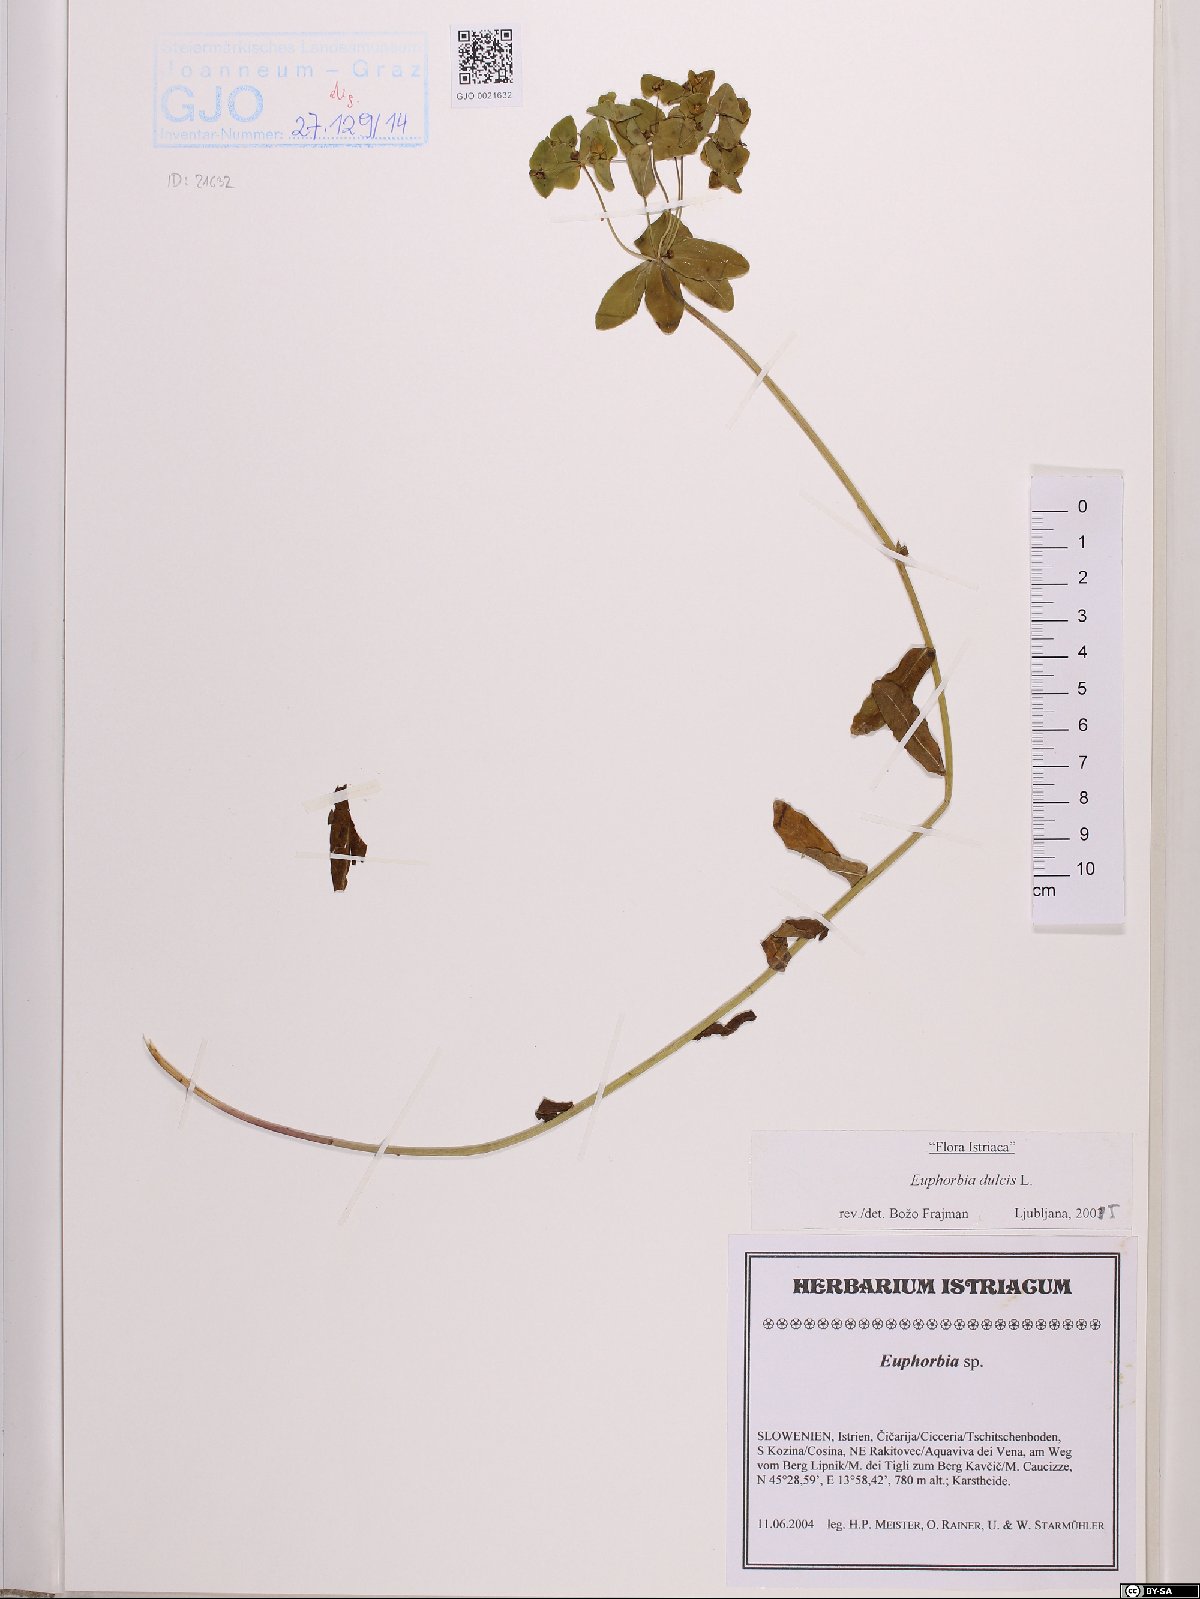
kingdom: Plantae
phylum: Tracheophyta
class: Magnoliopsida
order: Malpighiales
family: Euphorbiaceae
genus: Euphorbia
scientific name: Euphorbia dulcis
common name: Sweet spurge
